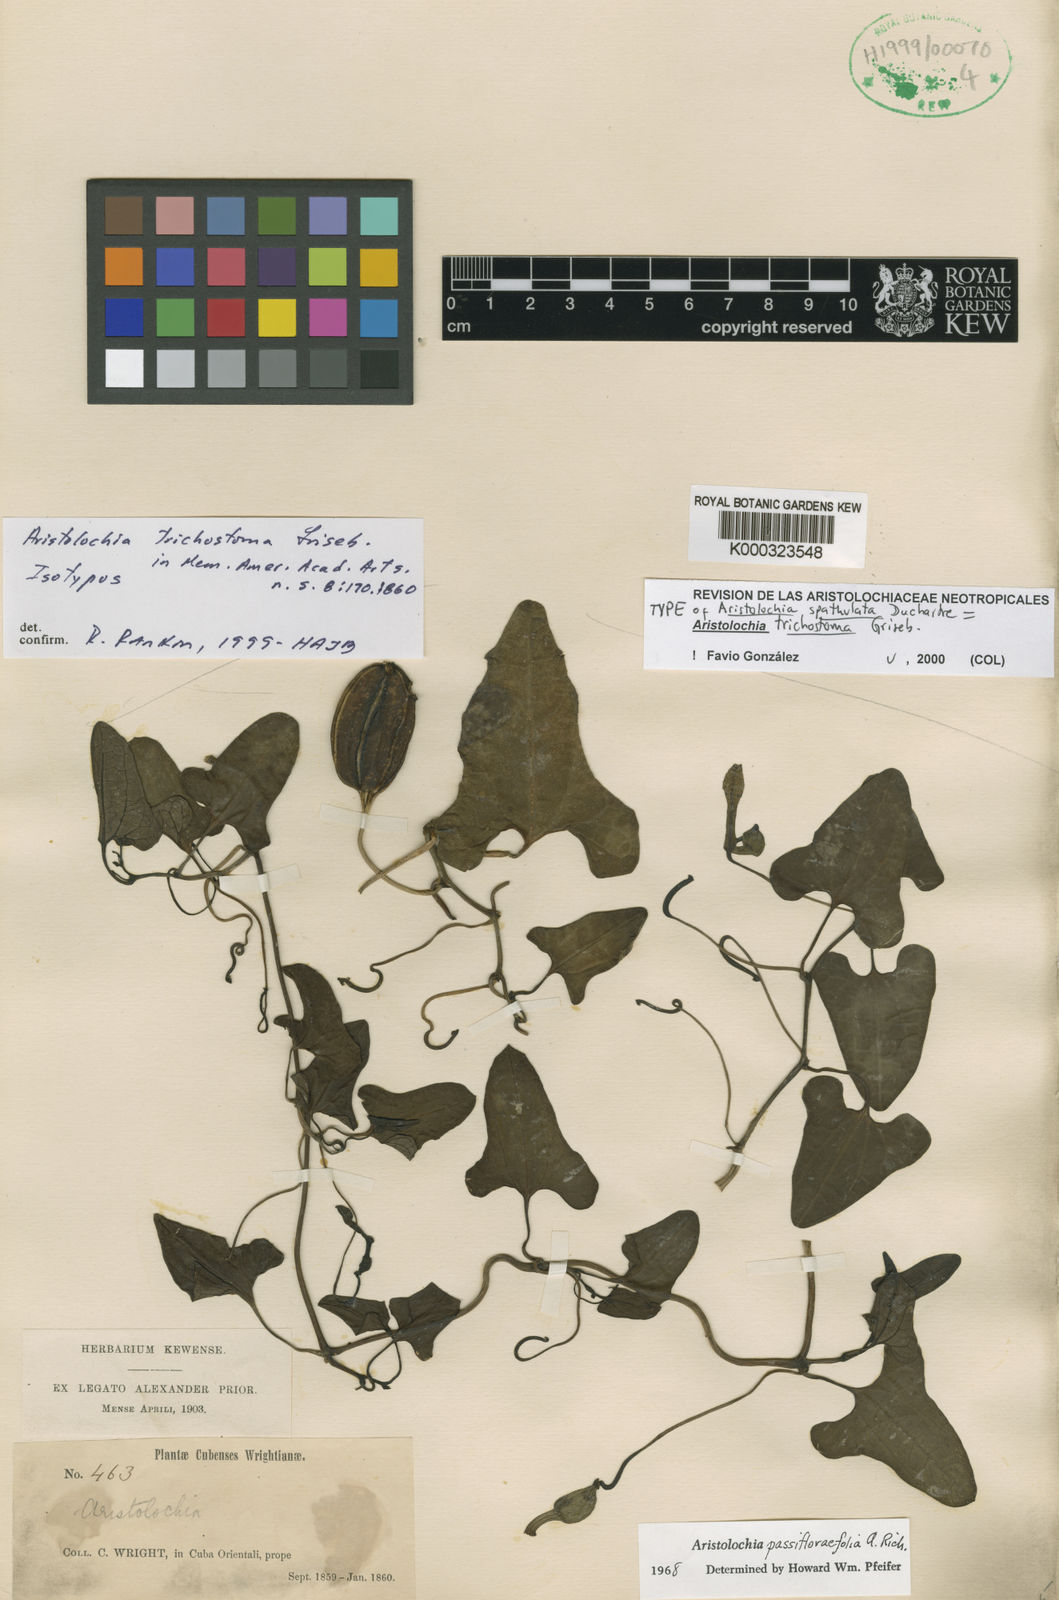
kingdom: Plantae
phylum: Tracheophyta
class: Magnoliopsida
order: Piperales
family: Aristolochiaceae
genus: Aristolochia
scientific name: Aristolochia trichostoma
